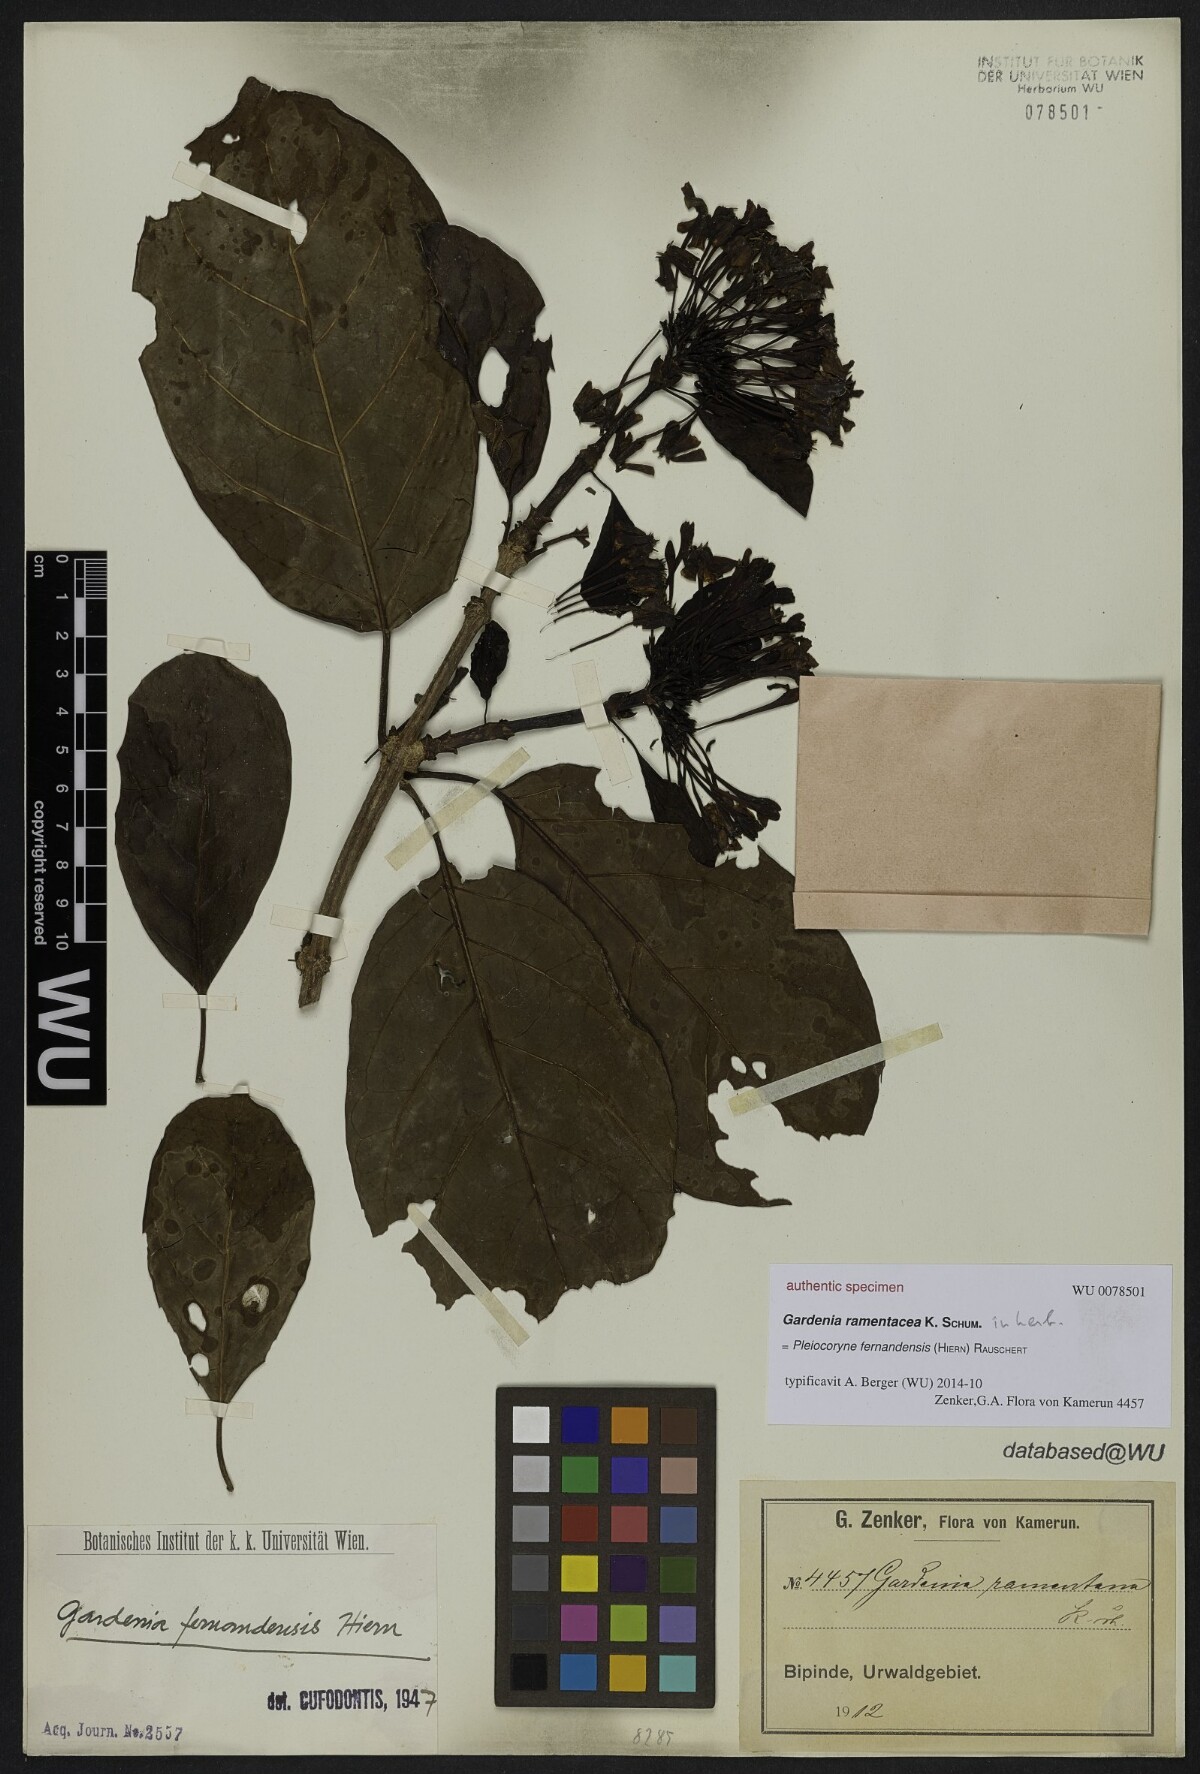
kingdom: Plantae
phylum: Tracheophyta
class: Magnoliopsida
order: Gentianales
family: Rubiaceae
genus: Gardenia
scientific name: Gardenia
